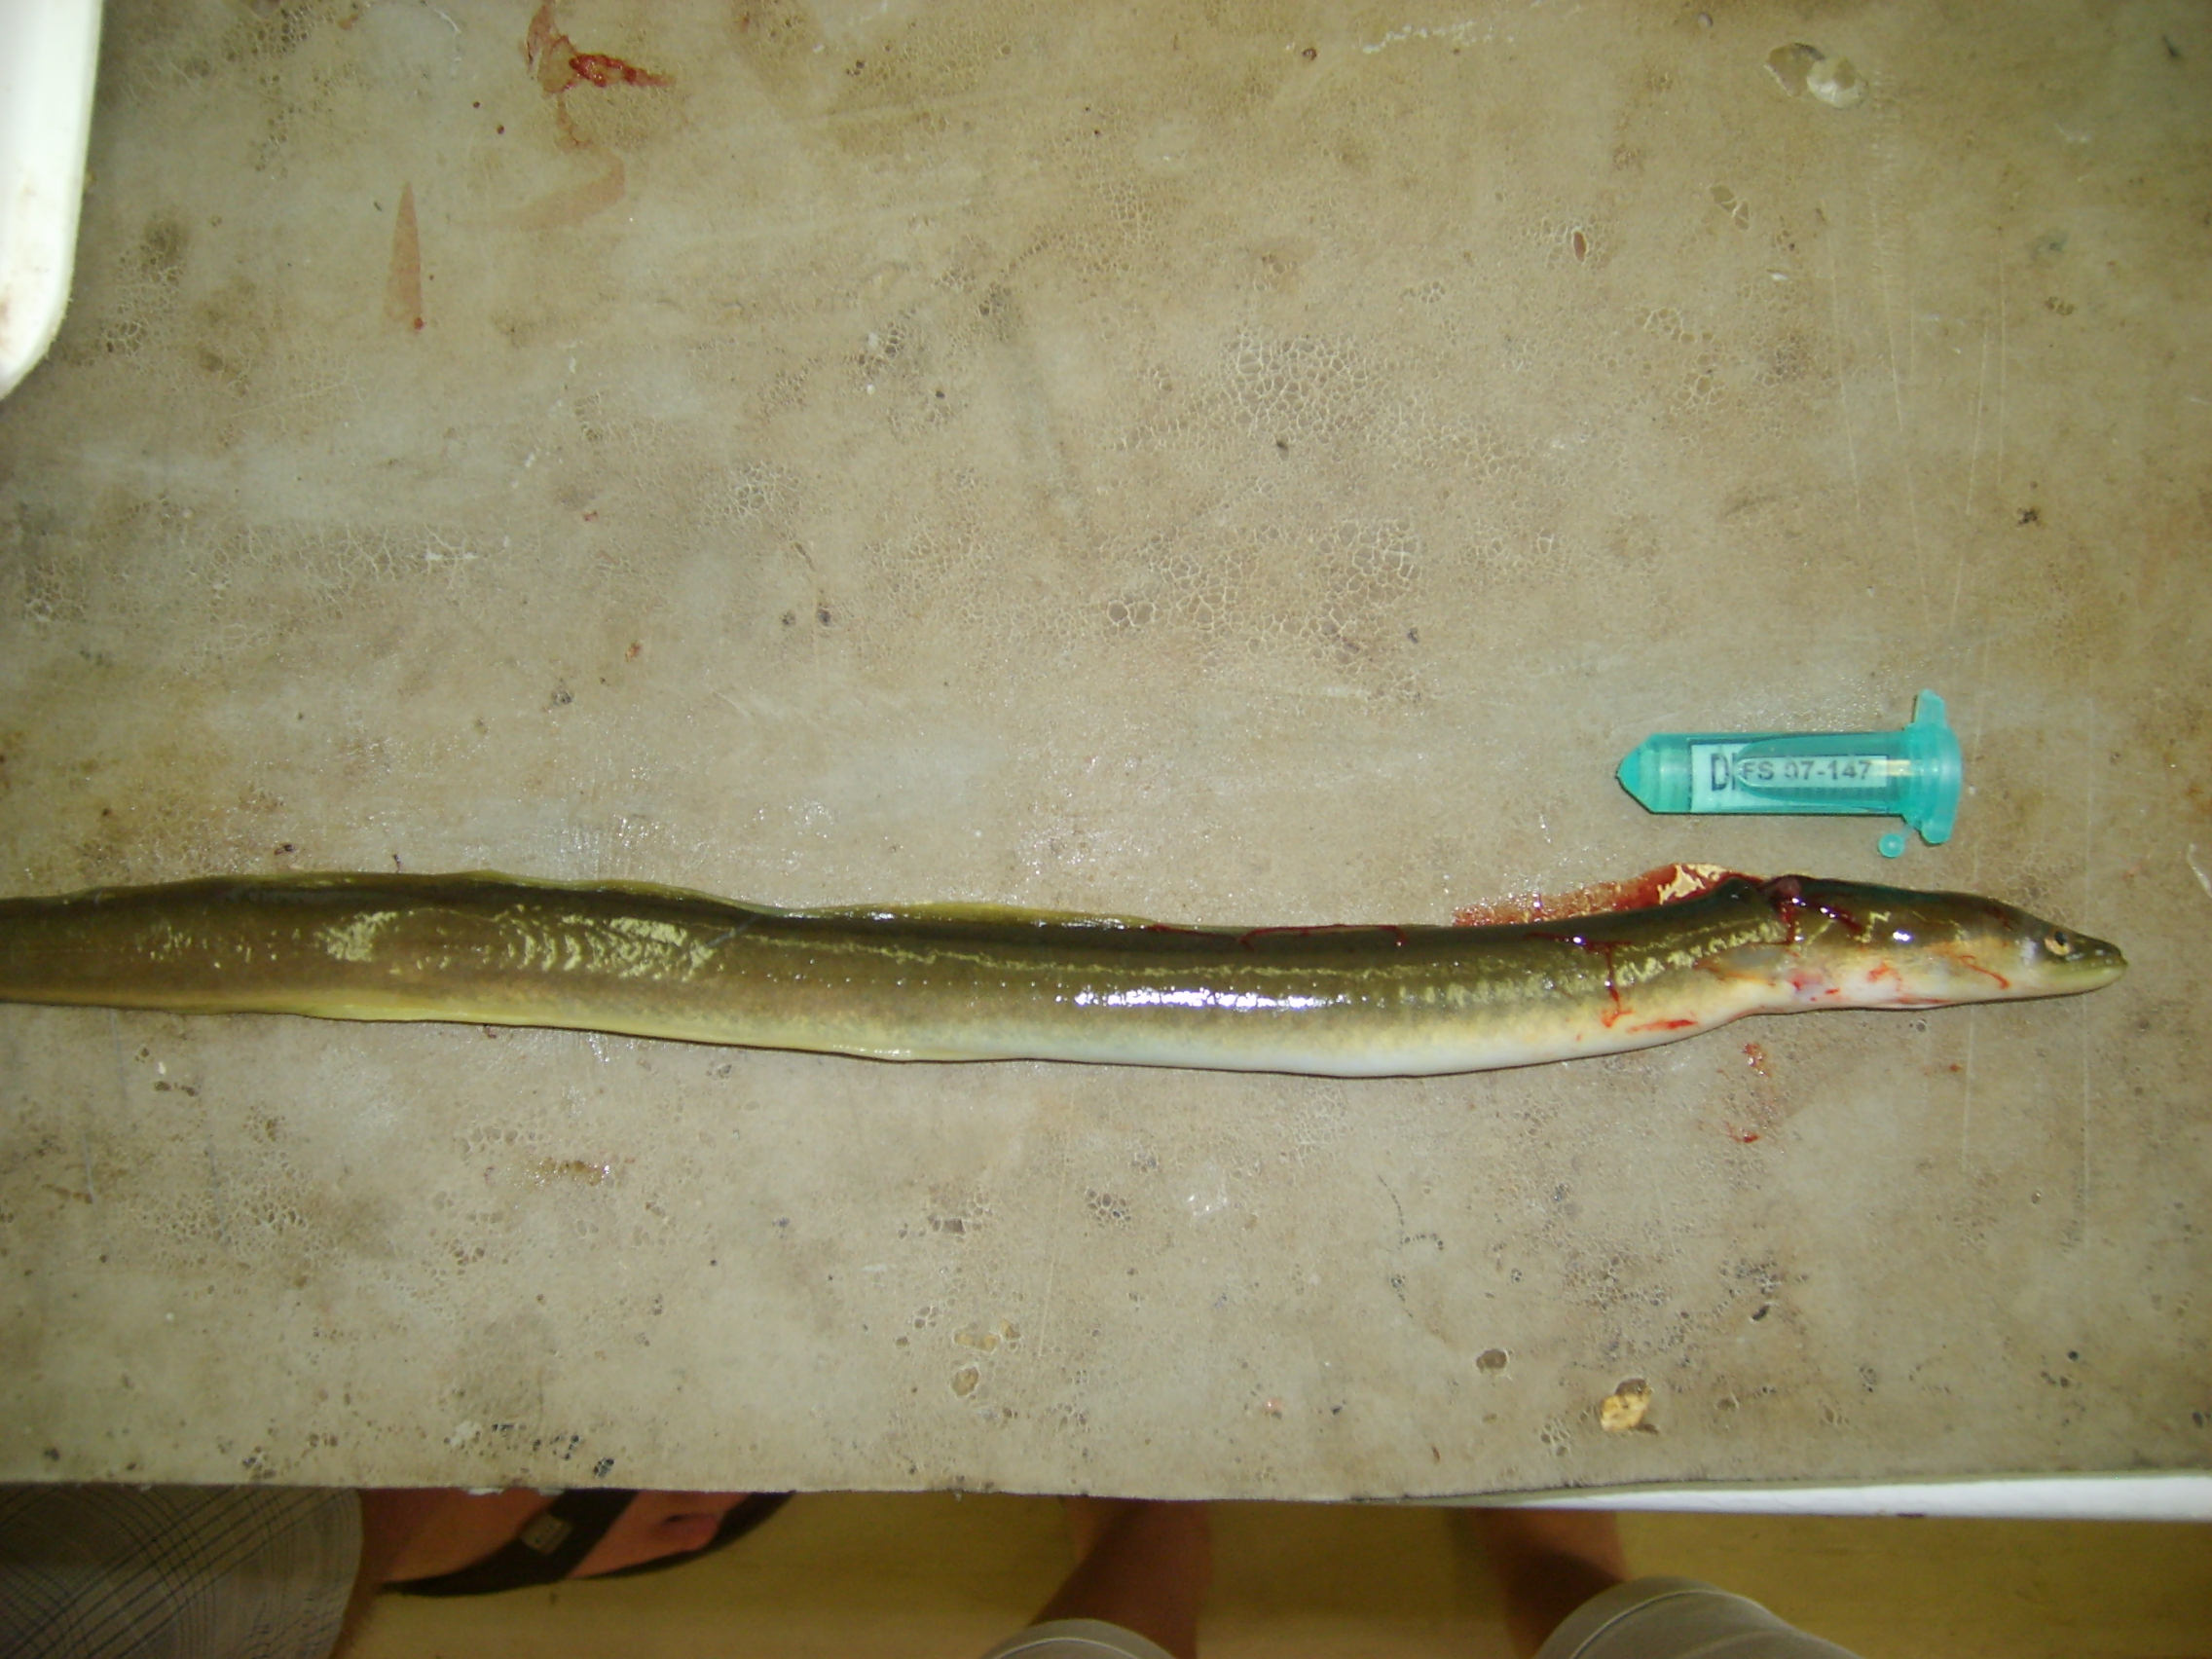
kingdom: Animalia
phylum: Chordata
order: Anguilliformes
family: Anguillidae
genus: Anguilla
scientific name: Anguilla mossambica
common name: African longfin eel
